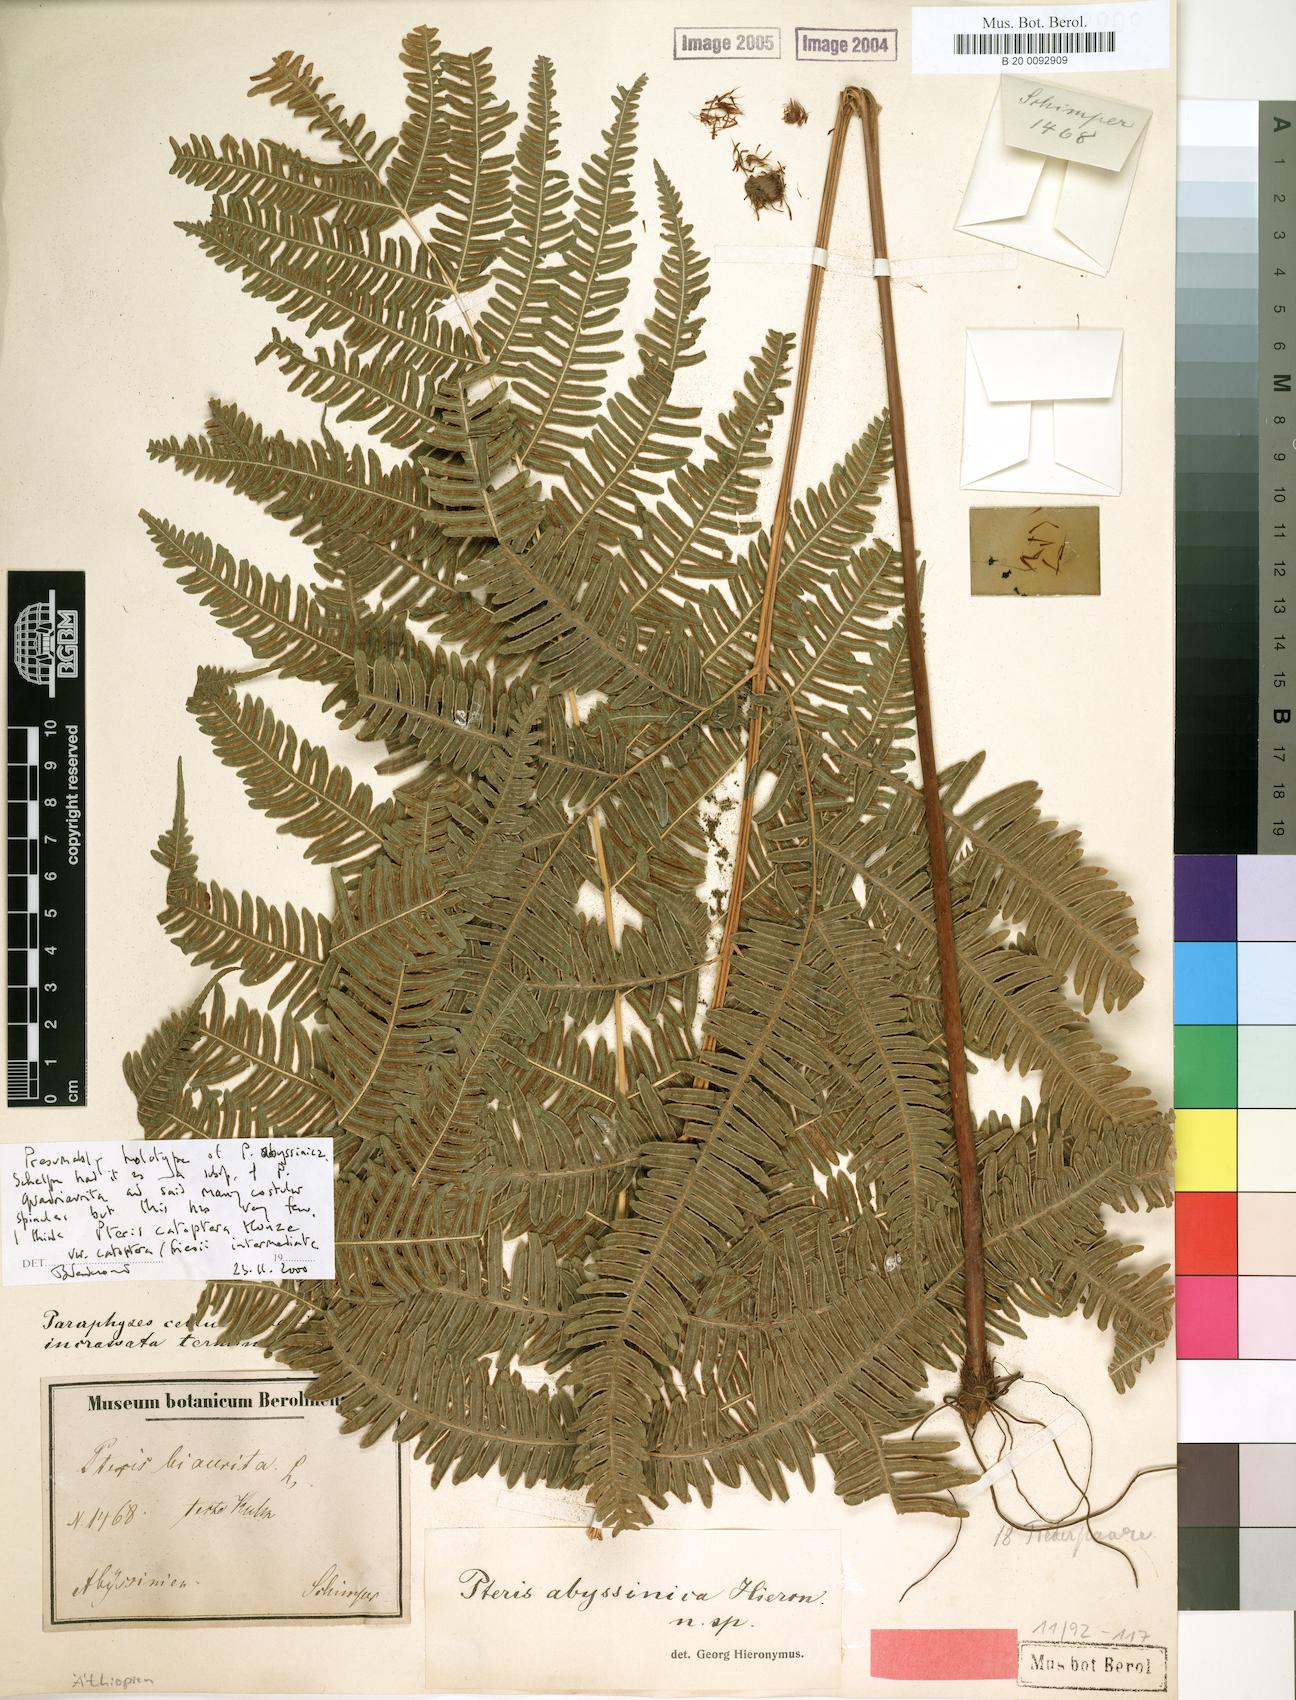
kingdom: Plantae
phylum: Tracheophyta
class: Polypodiopsida
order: Polypodiales
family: Pteridaceae
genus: Pteris
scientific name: Pteris catoptera
